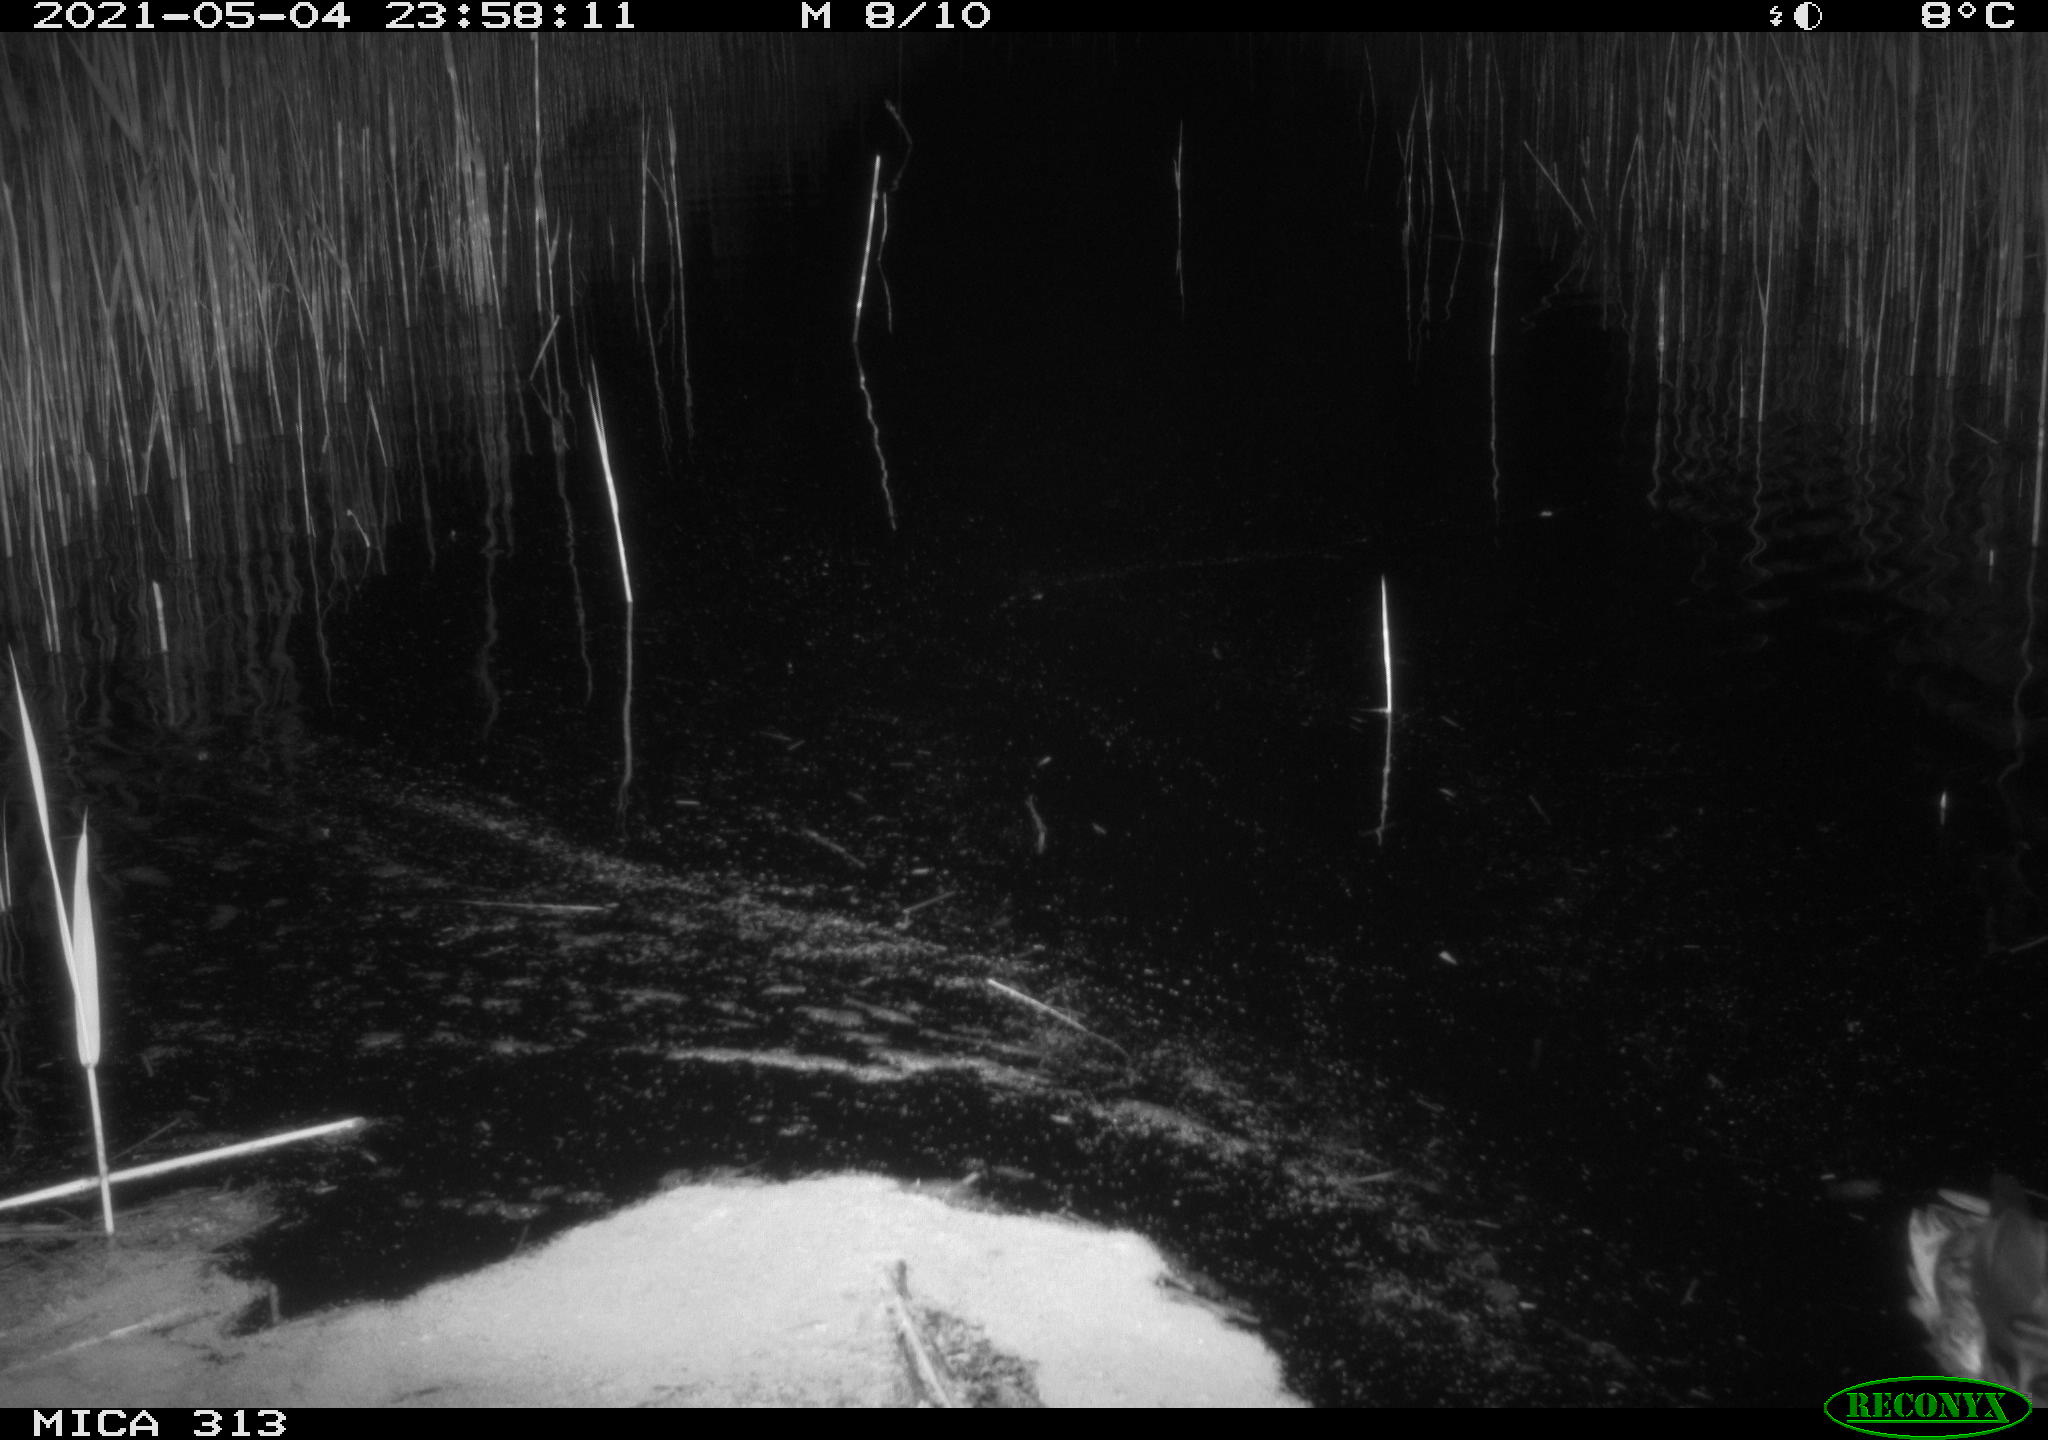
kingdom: Animalia
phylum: Chordata
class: Aves
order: Anseriformes
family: Anatidae
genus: Anas
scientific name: Anas platyrhynchos
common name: Mallard
